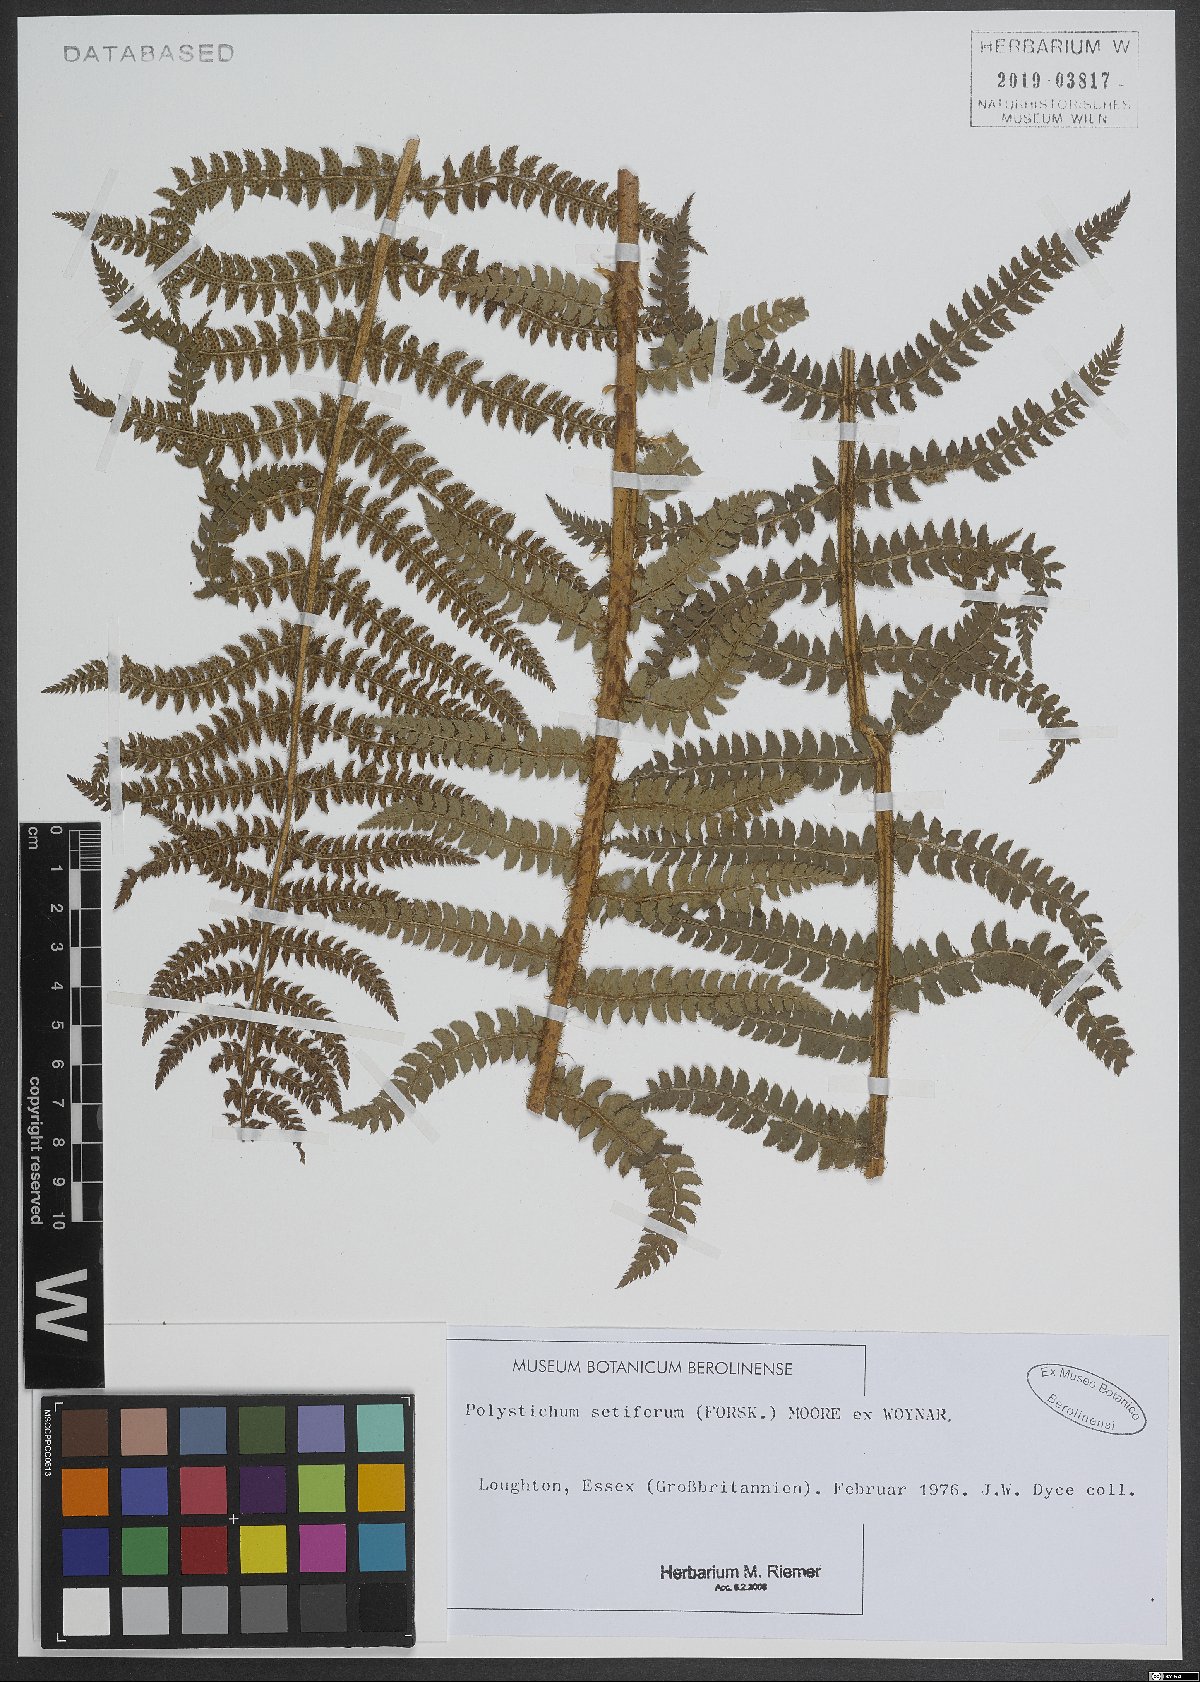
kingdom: Plantae
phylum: Tracheophyta
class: Polypodiopsida
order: Polypodiales
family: Dryopteridaceae
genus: Polystichum
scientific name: Polystichum setiferum
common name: Soft shield-fern
